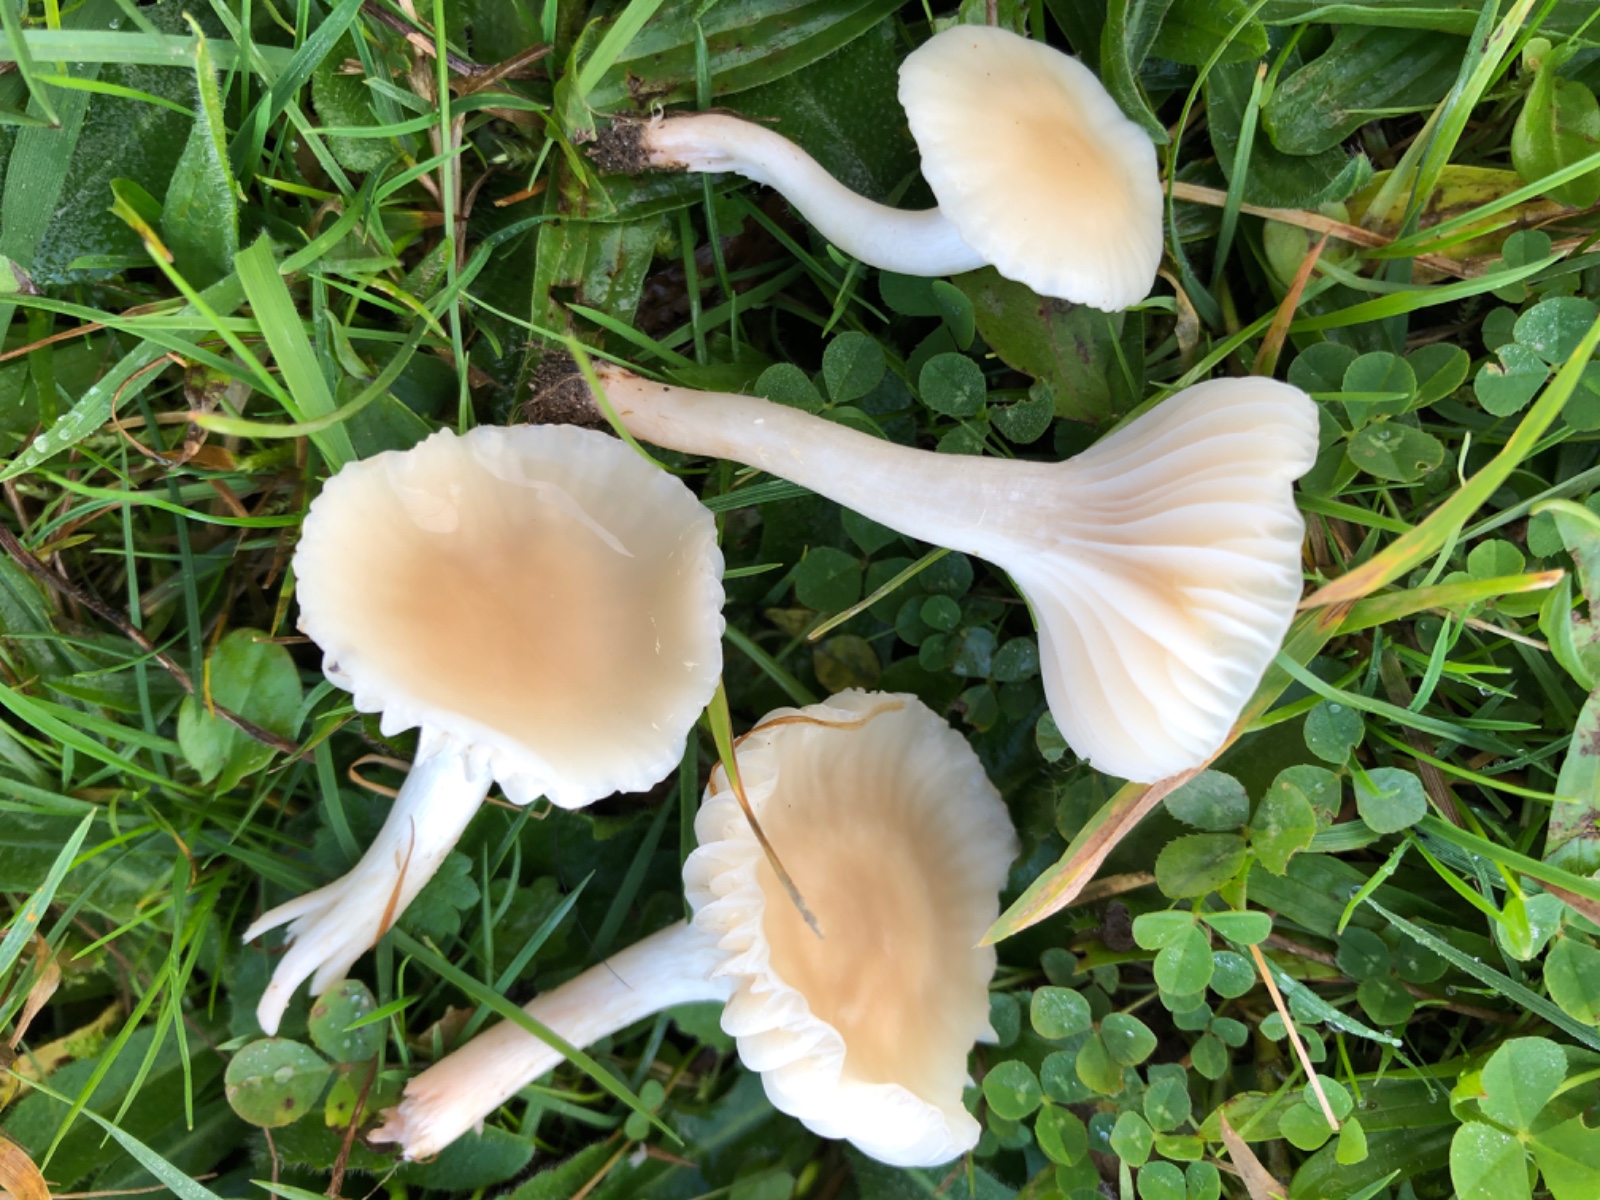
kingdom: Fungi
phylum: Basidiomycota
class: Agaricomycetes
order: Agaricales
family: Hygrophoraceae
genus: Cuphophyllus
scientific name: Cuphophyllus russocoriaceus
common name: ruslæder-vokshat
